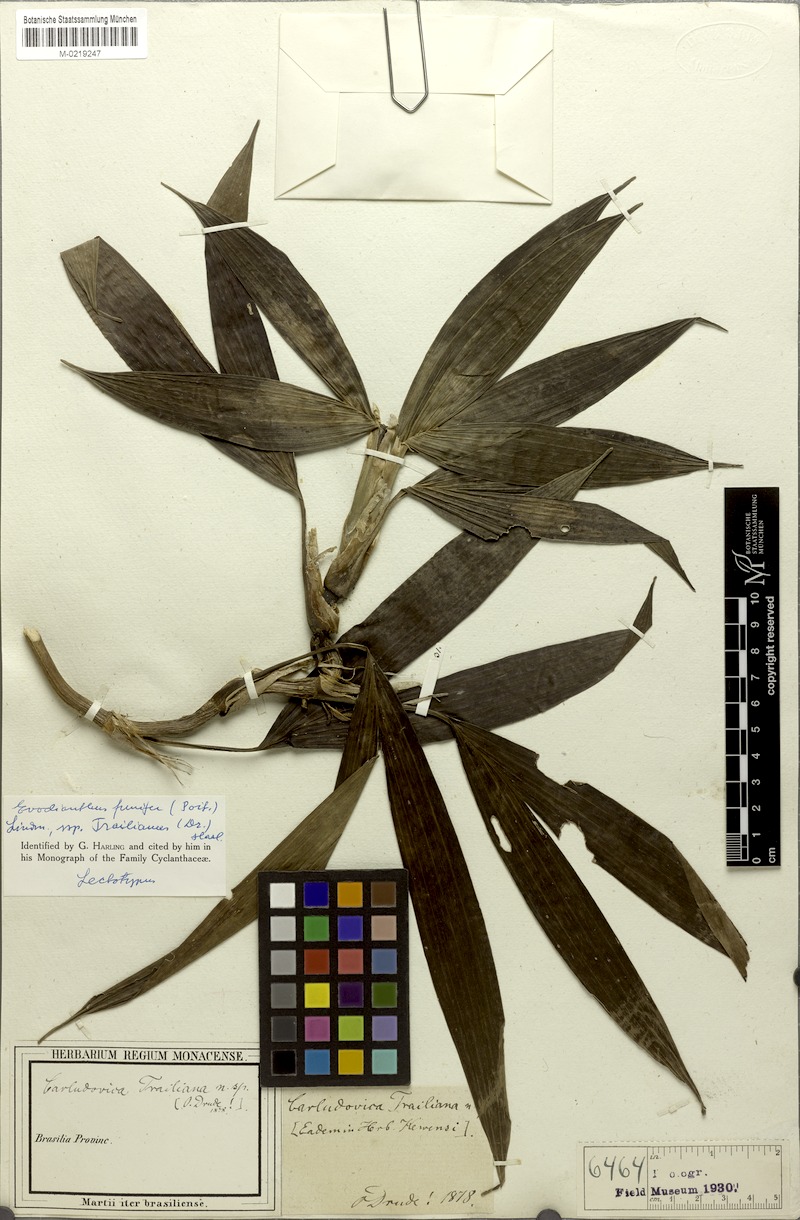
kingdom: Plantae
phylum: Tracheophyta
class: Liliopsida
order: Pandanales
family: Cyclanthaceae
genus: Evodianthus
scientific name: Evodianthus funifer
